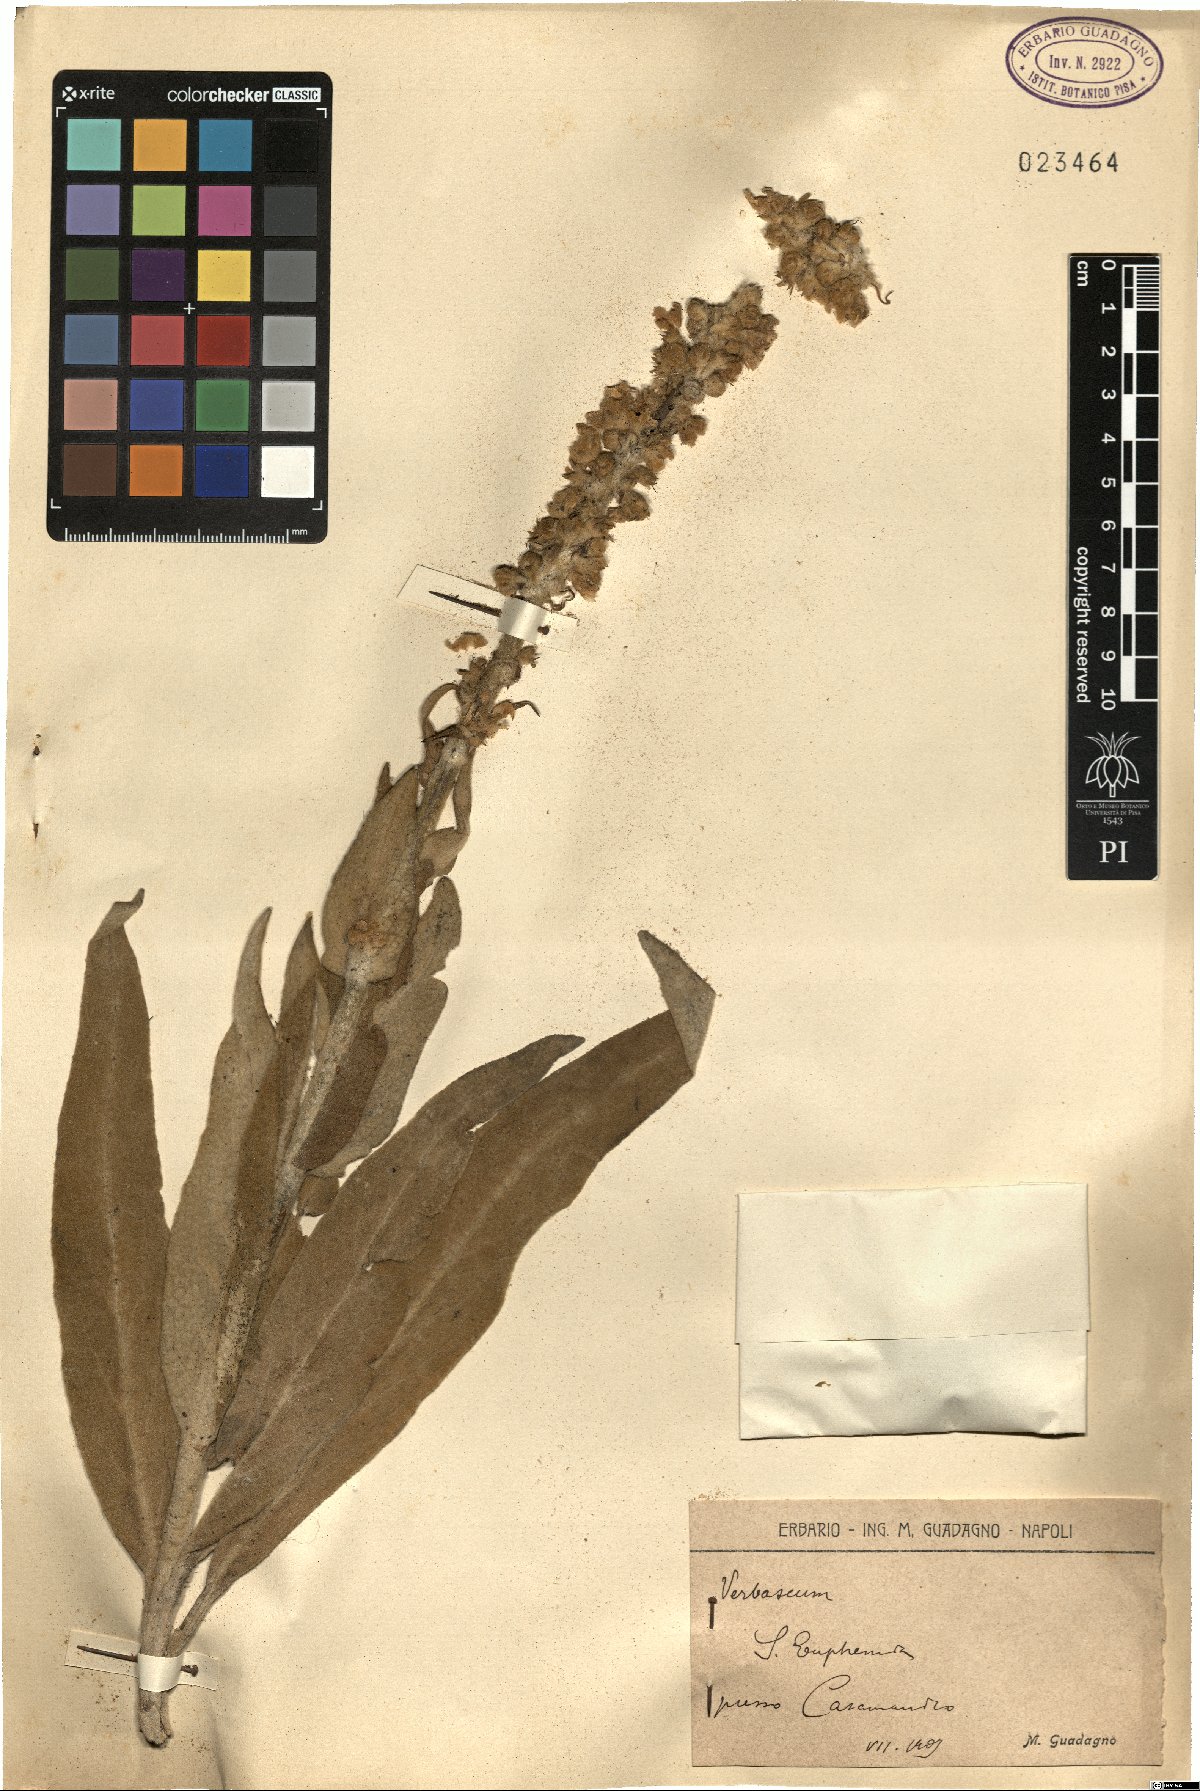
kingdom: Plantae
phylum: Tracheophyta
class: Magnoliopsida
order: Lamiales
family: Scrophulariaceae
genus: Verbascum
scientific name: Verbascum
